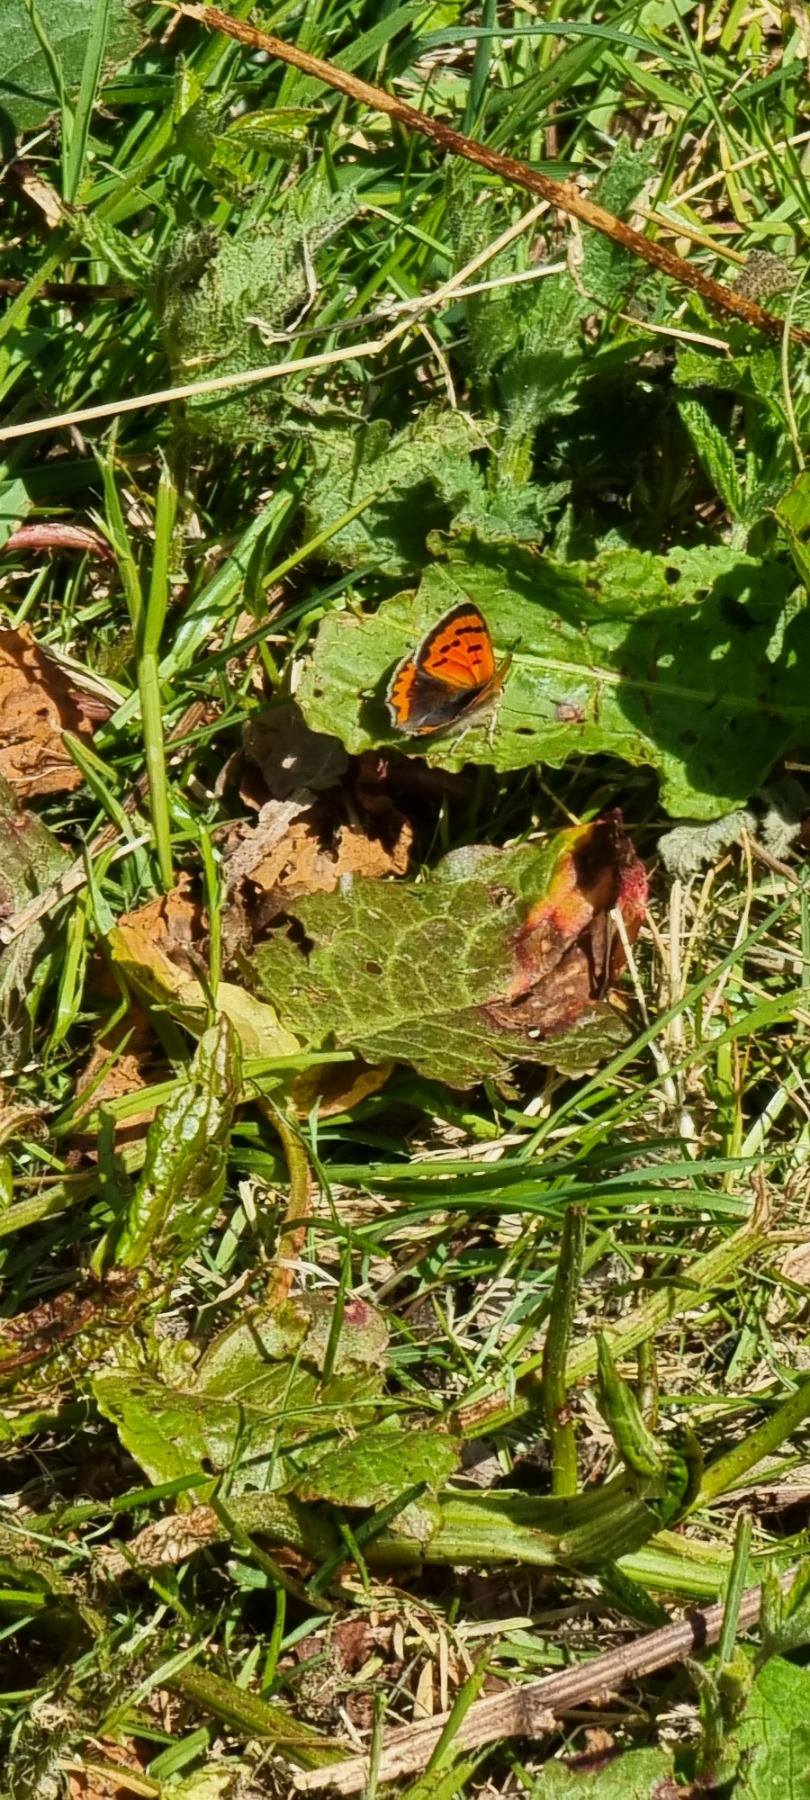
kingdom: Animalia
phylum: Arthropoda
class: Insecta
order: Lepidoptera
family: Lycaenidae
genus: Lycaena
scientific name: Lycaena phlaeas
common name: Lille ildfugl
